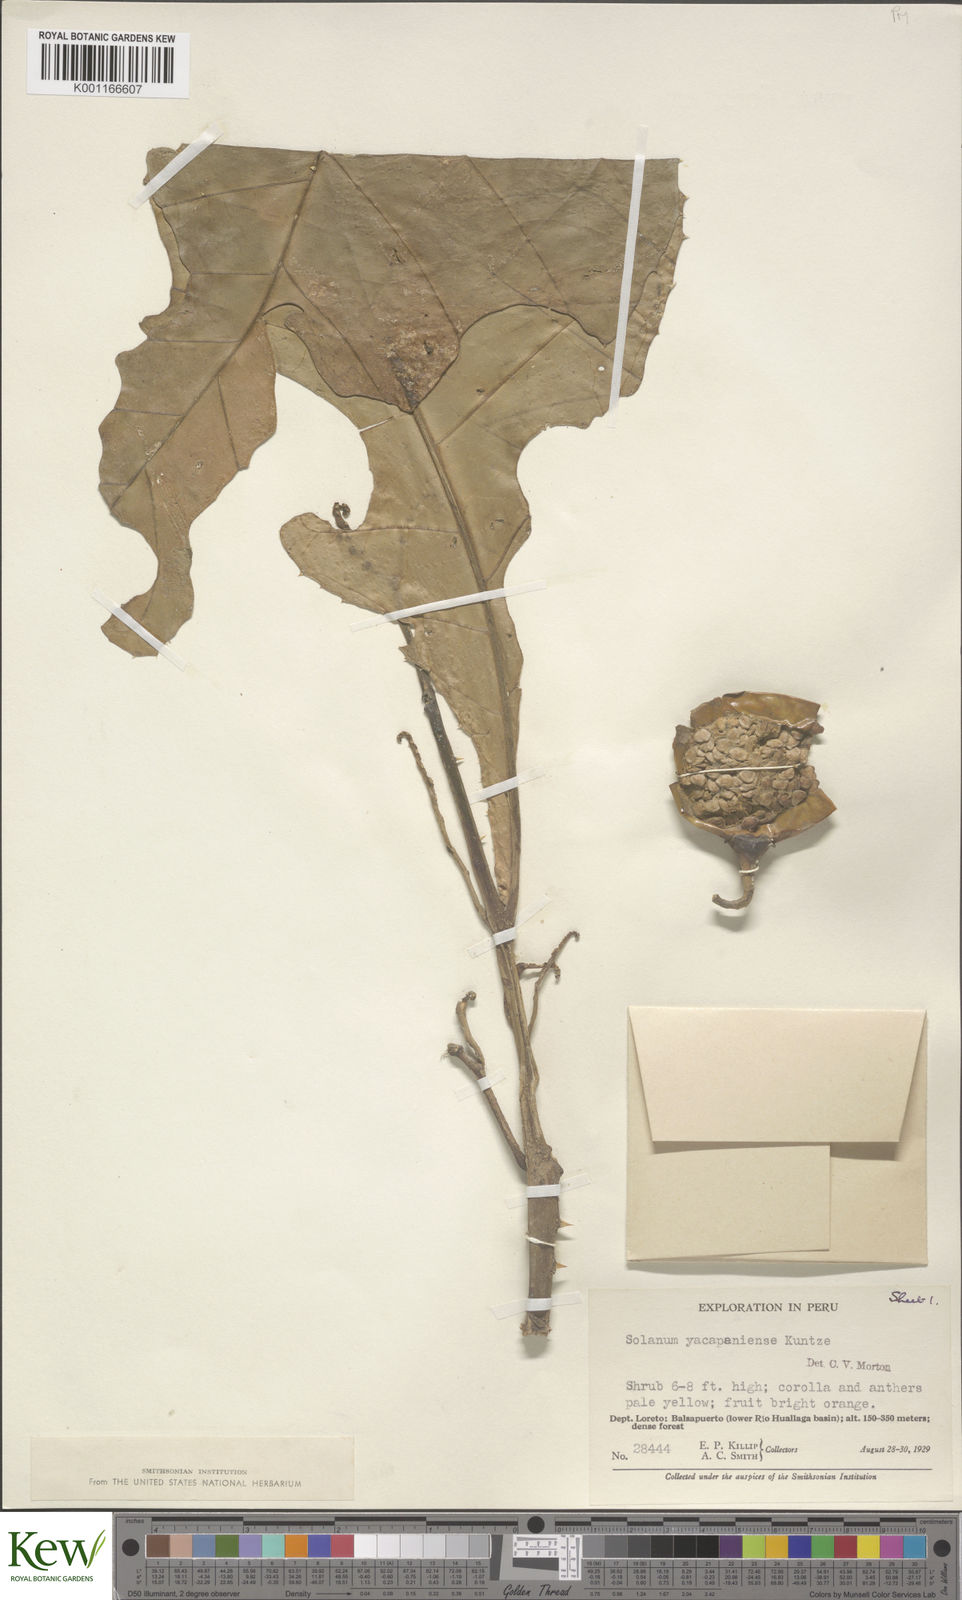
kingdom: Plantae
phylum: Tracheophyta
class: Magnoliopsida
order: Solanales
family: Solanaceae
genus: Solanum
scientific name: Solanum
